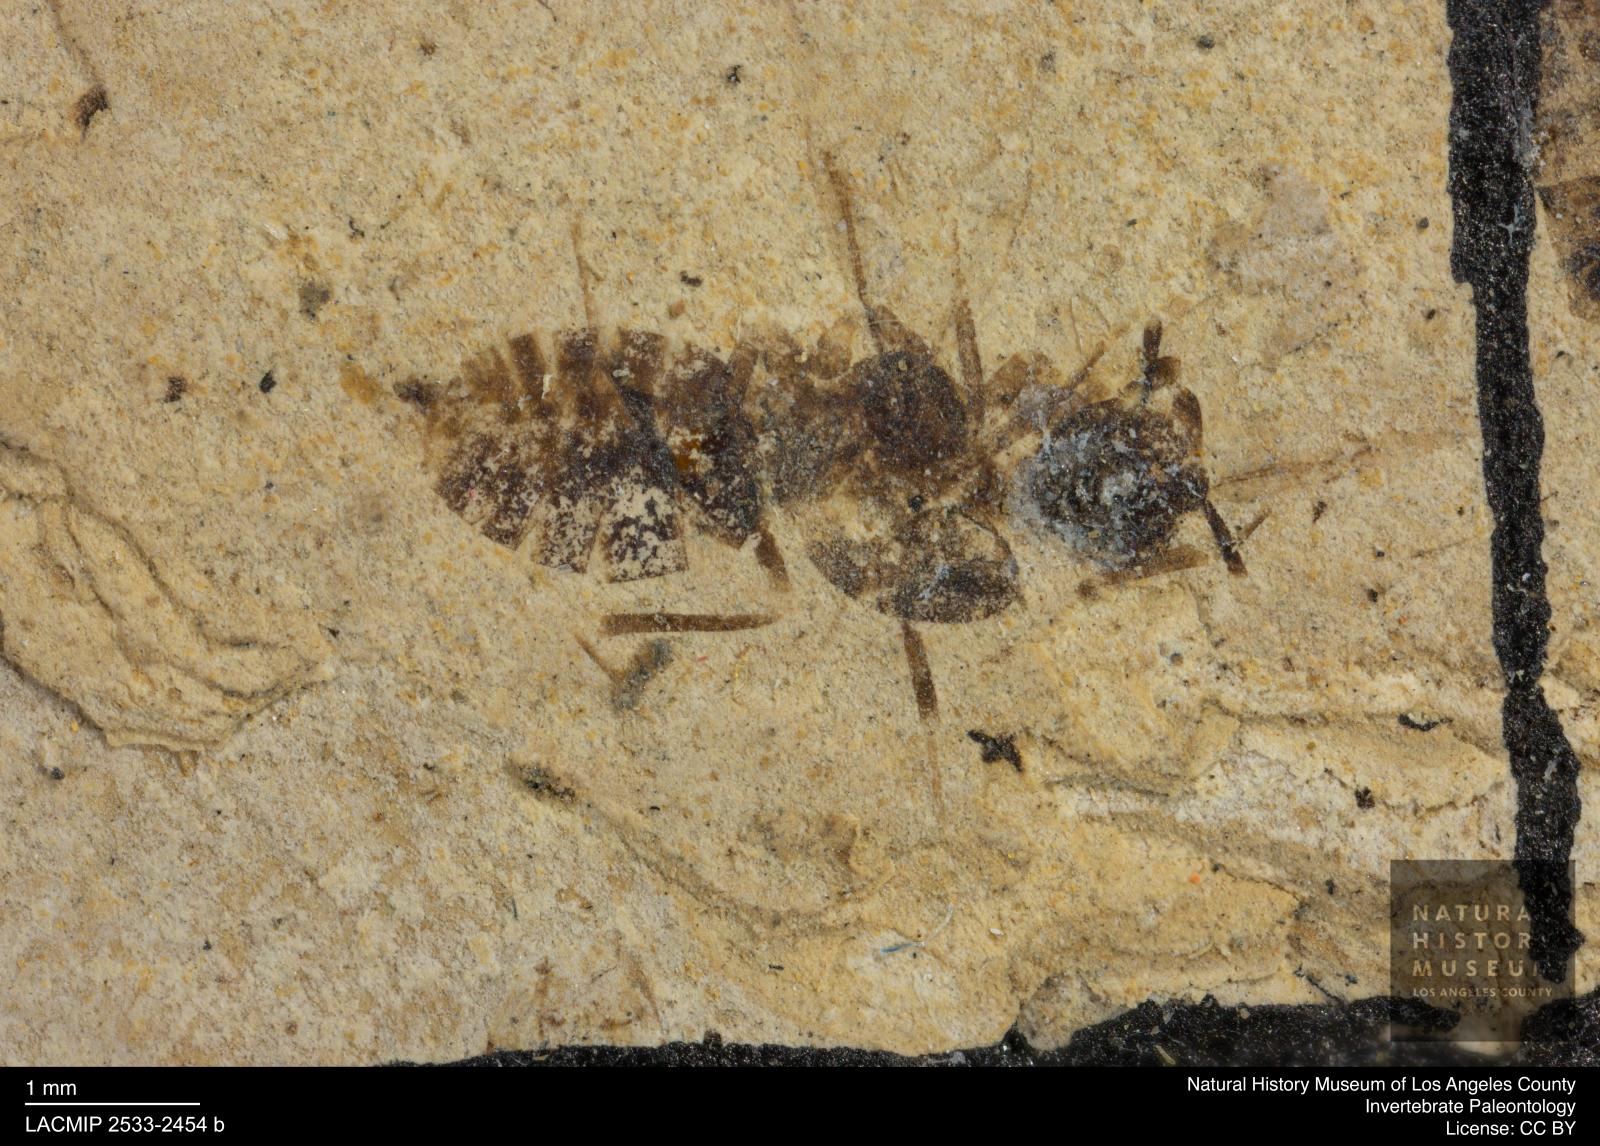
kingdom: Animalia
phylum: Arthropoda
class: Insecta
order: Hymenoptera
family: Formicidae
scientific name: Formicidae
